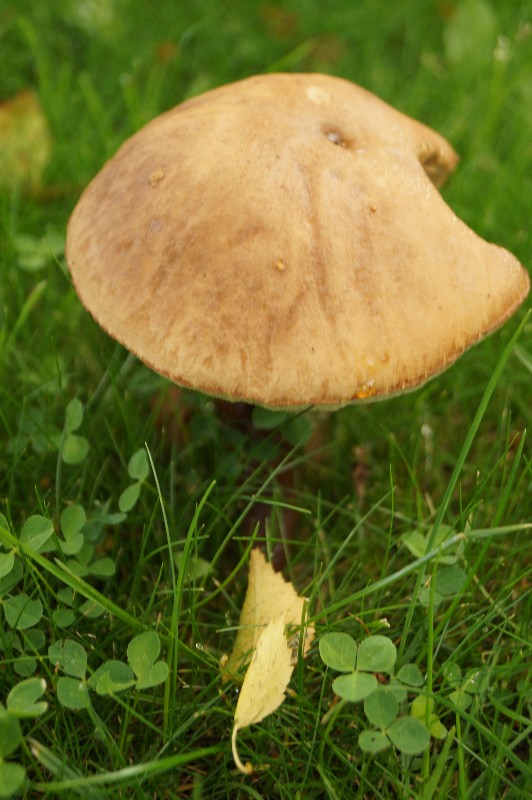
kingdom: Fungi
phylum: Basidiomycota
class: Agaricomycetes
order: Boletales
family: Boletaceae
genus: Leccinum
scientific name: Leccinum scabrum
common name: brun skælrørhat
